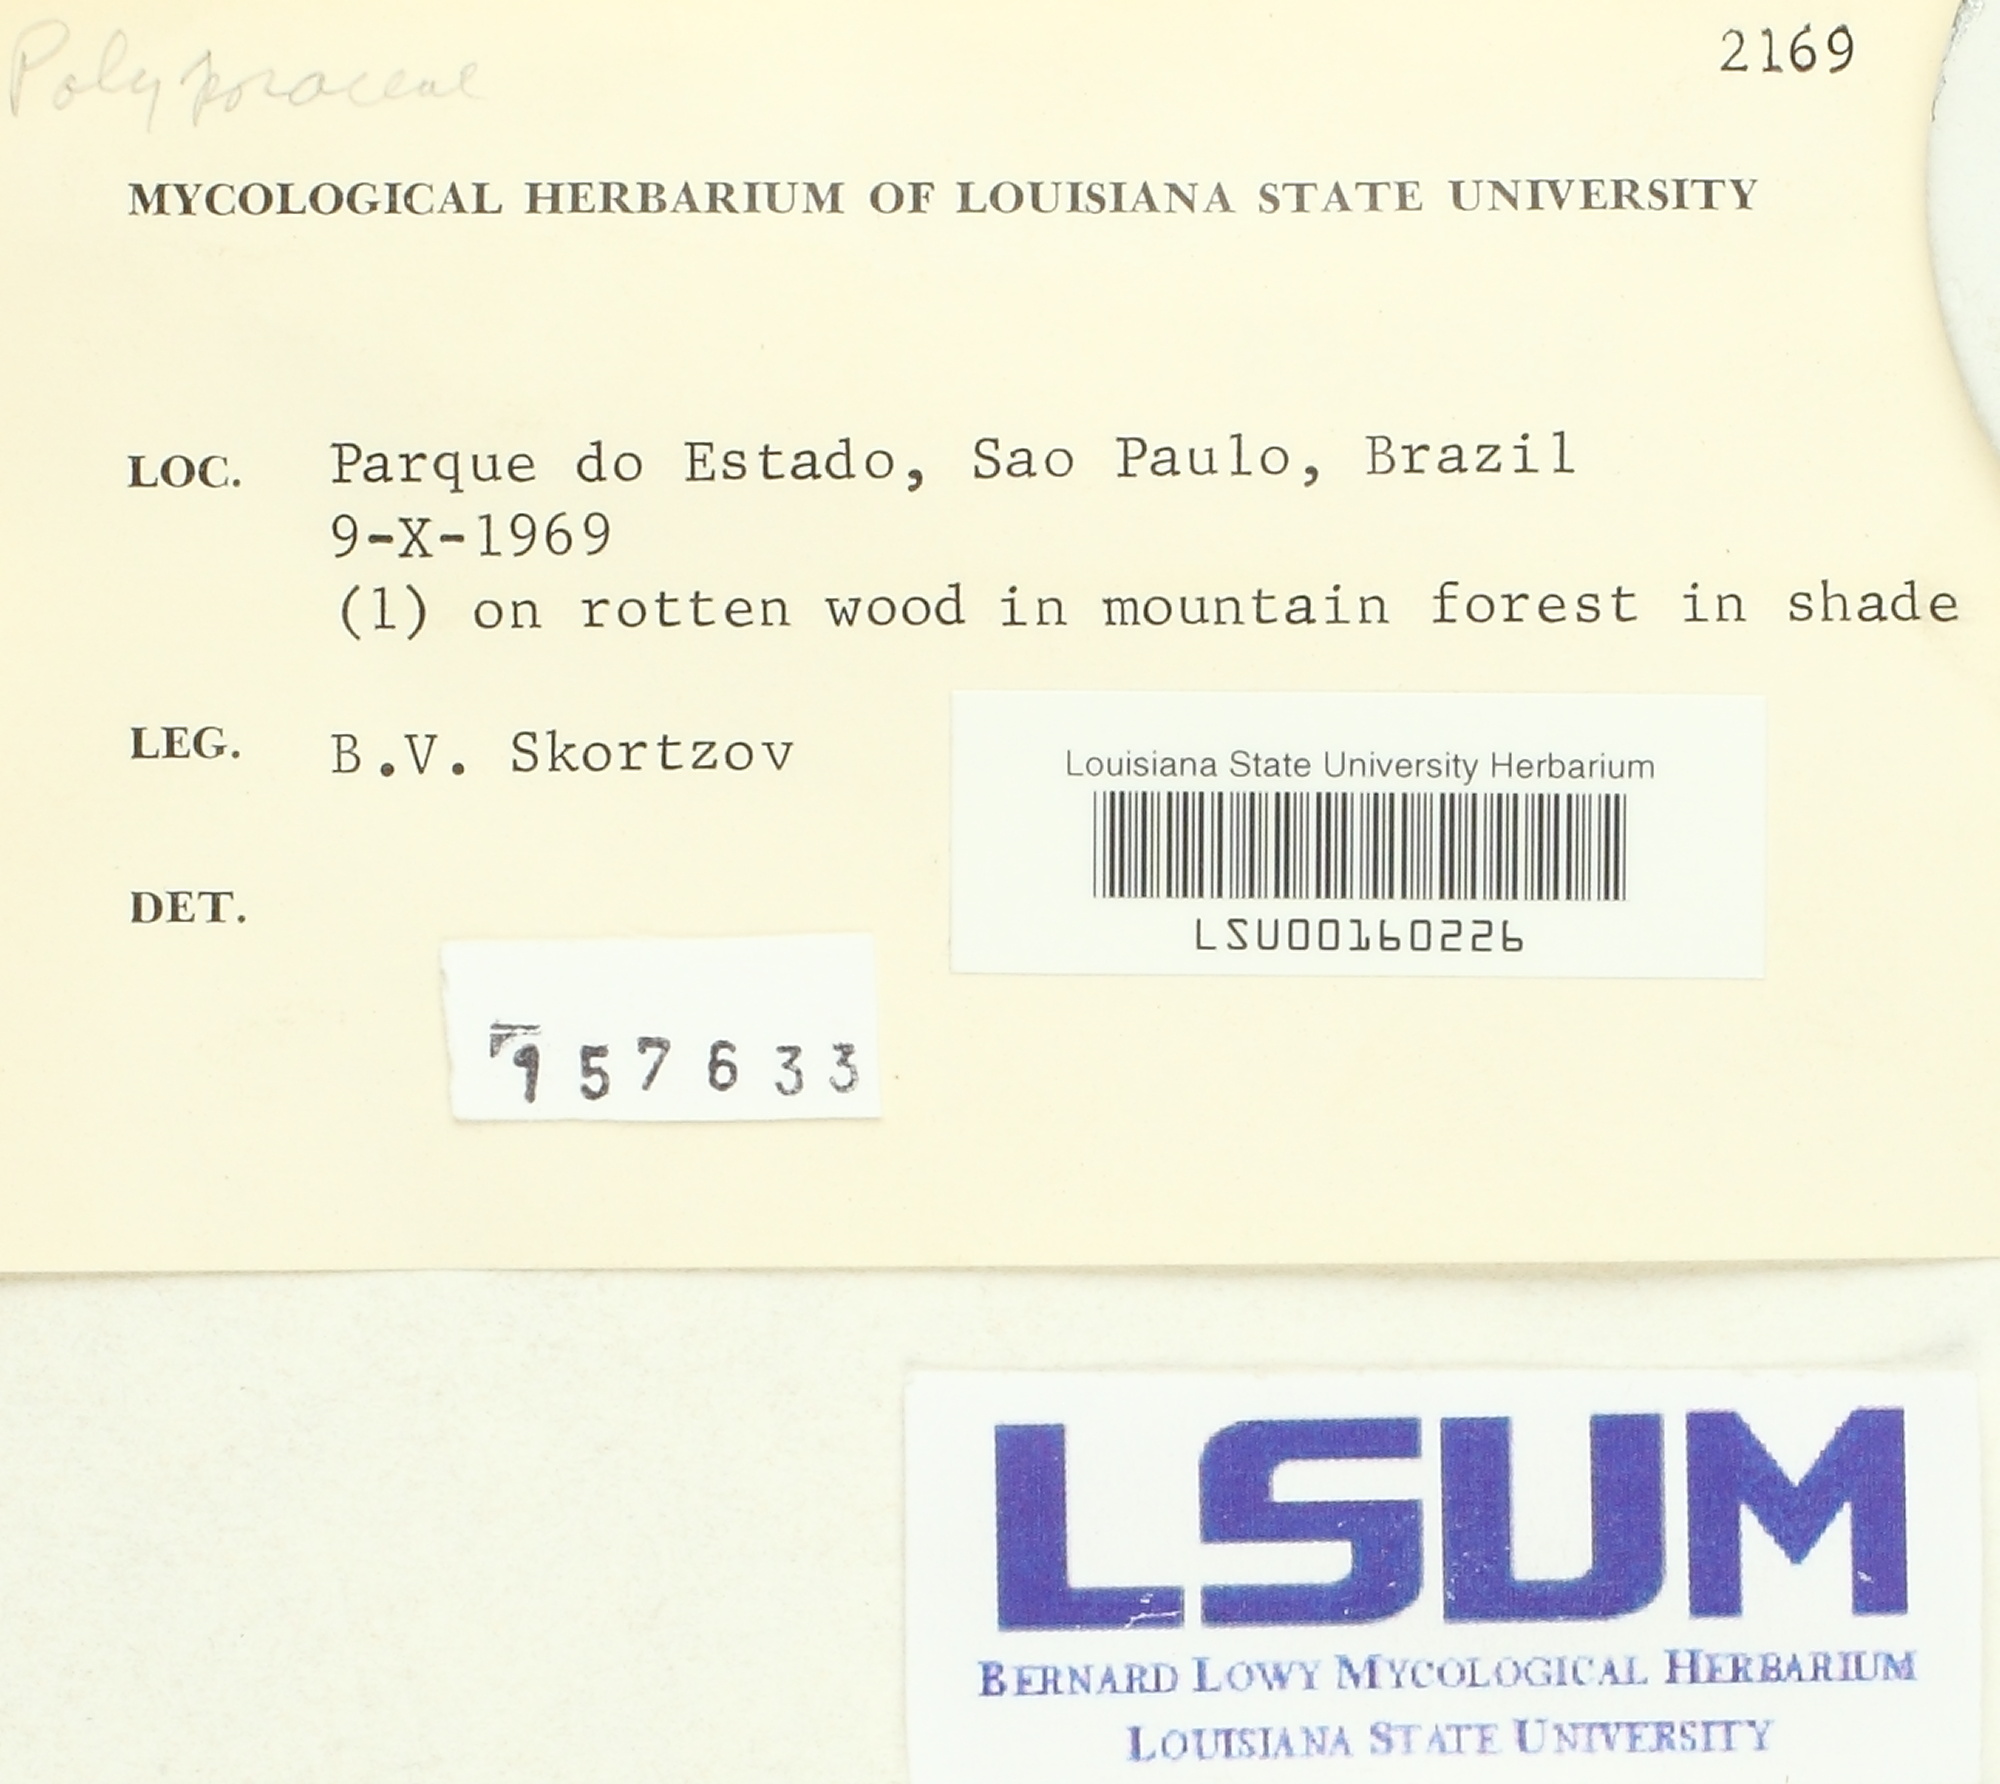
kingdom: Fungi
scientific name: Fungi
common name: Fungi
